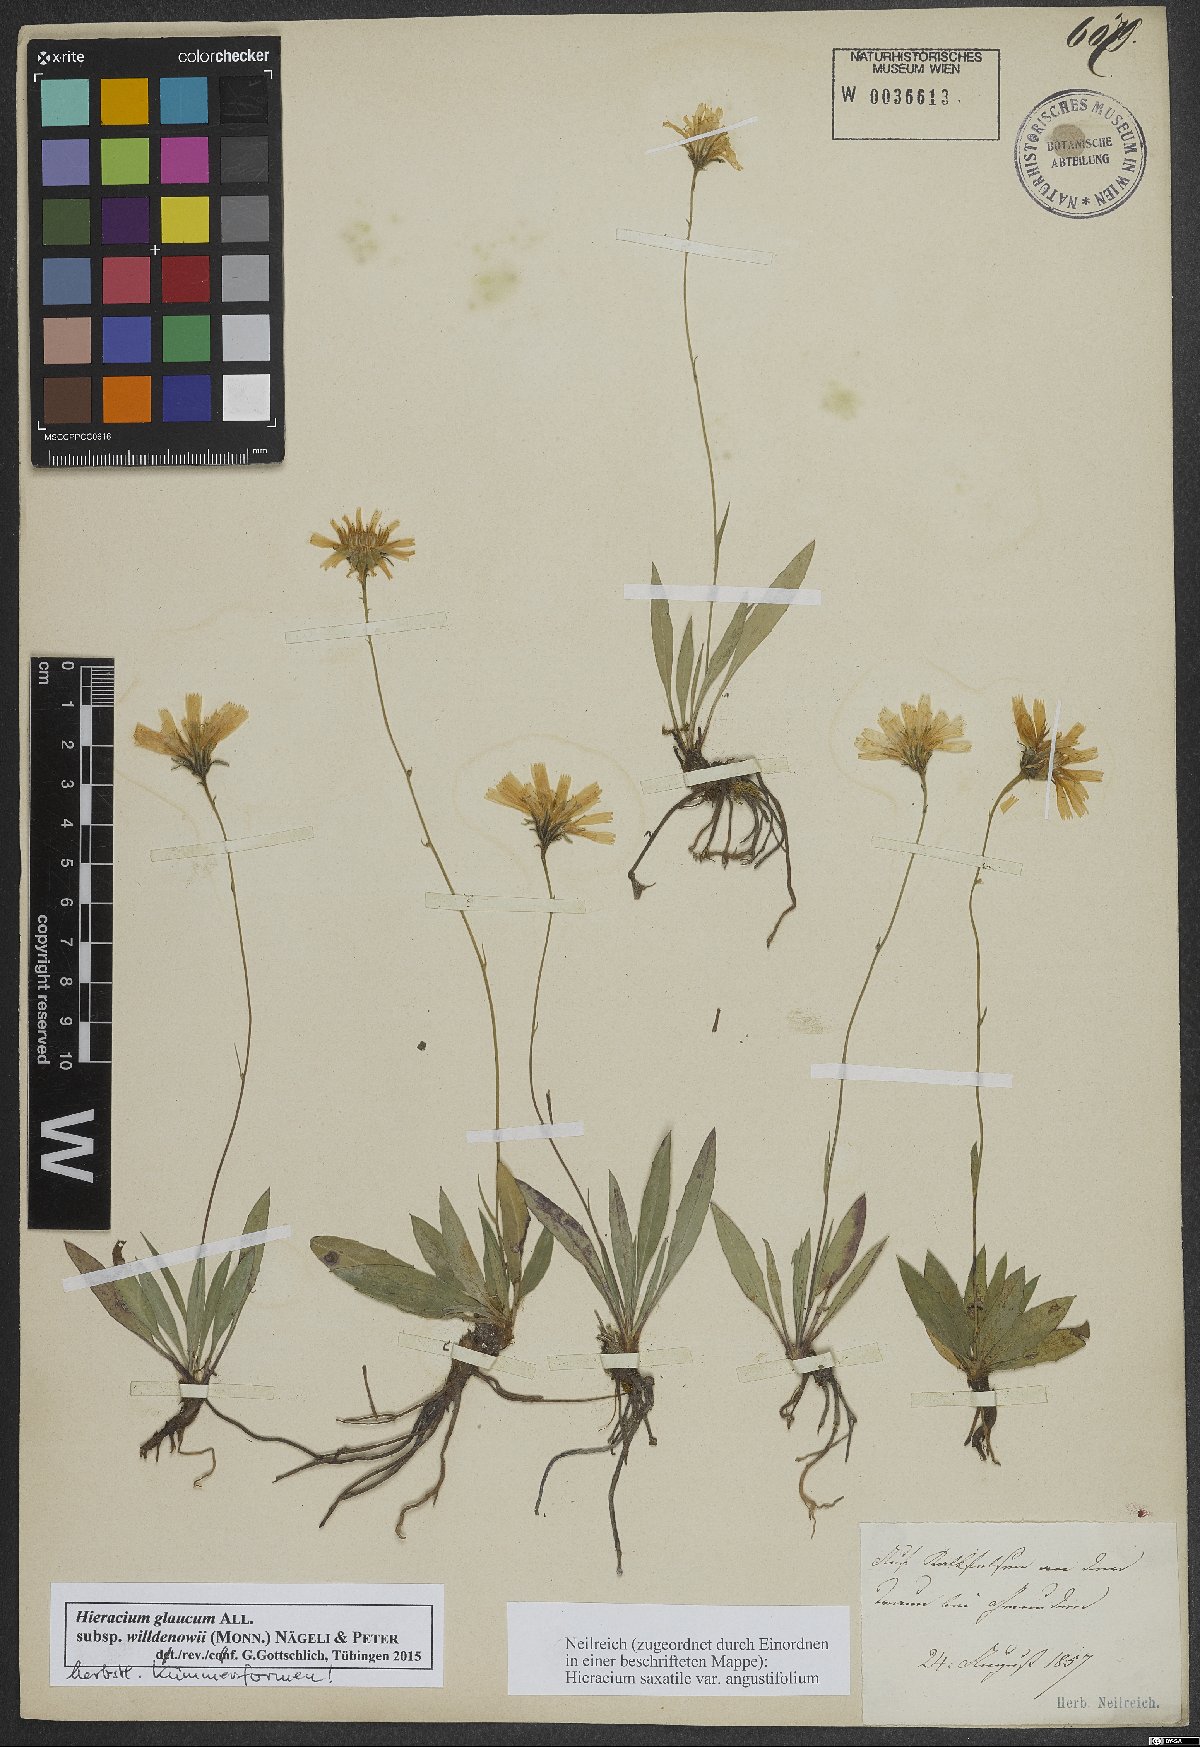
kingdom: Plantae
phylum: Tracheophyta
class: Magnoliopsida
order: Asterales
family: Asteraceae
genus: Hieracium
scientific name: Hieracium glaucum
